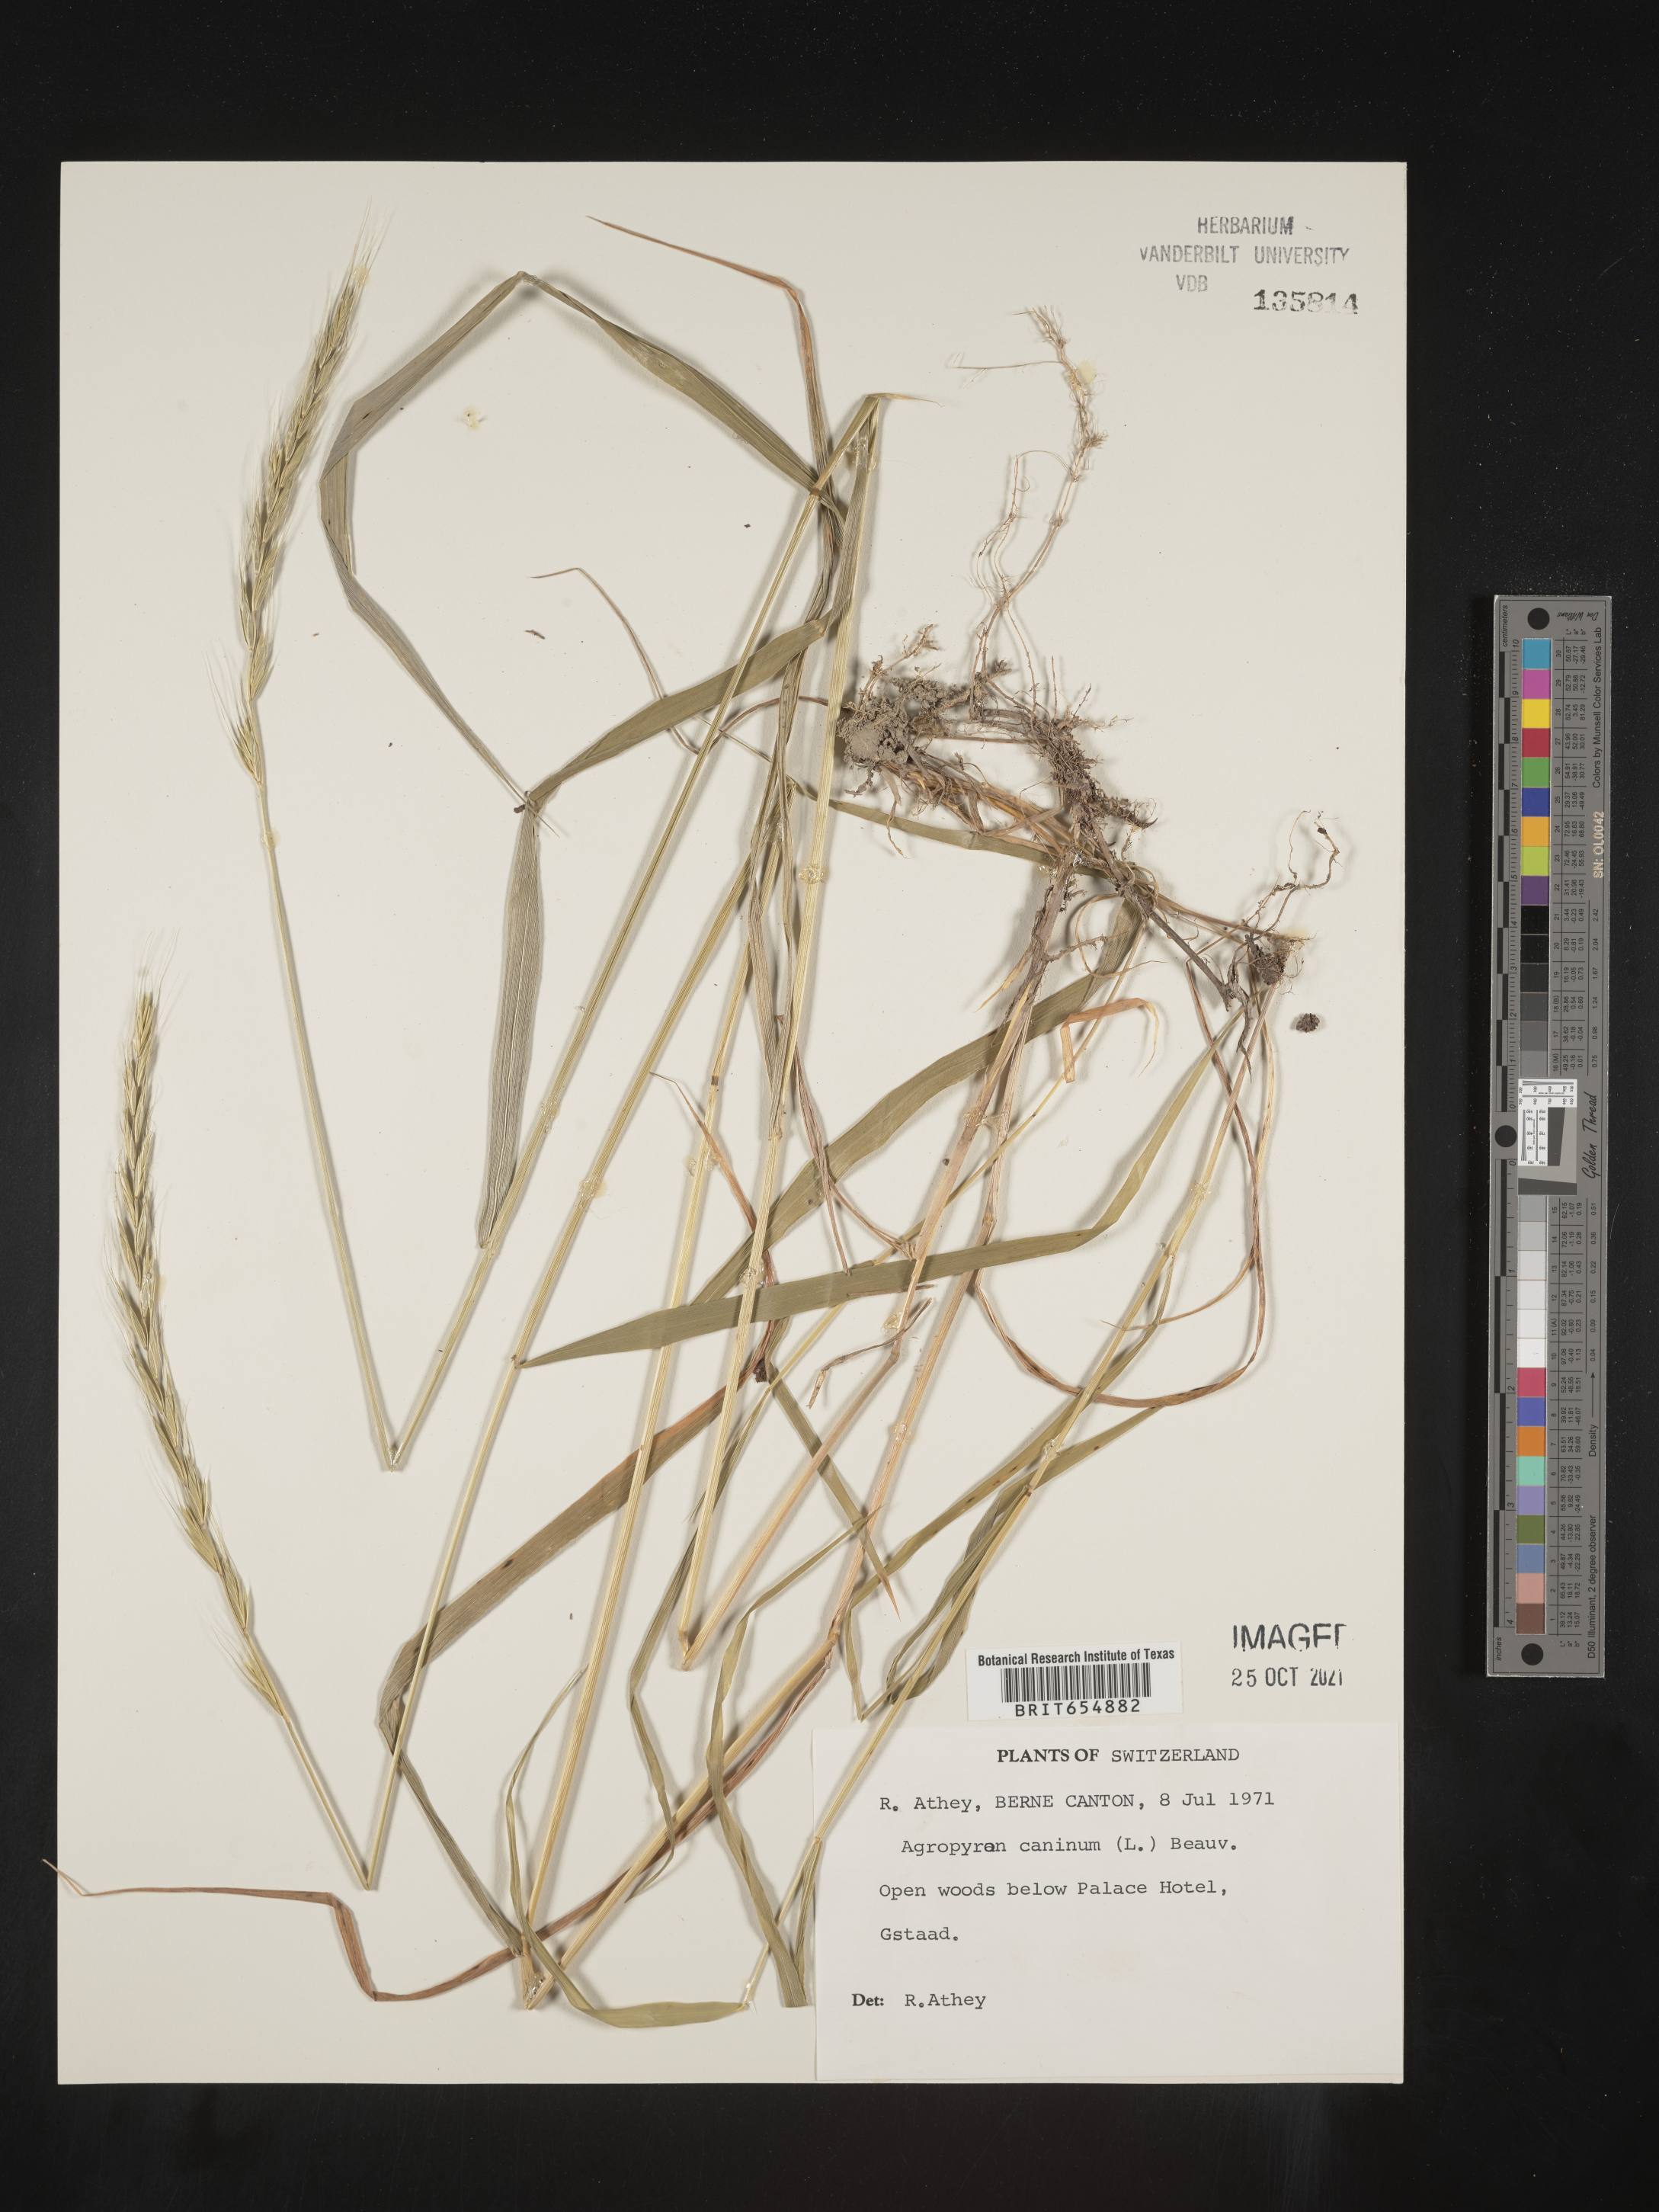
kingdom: Plantae
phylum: Tracheophyta
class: Liliopsida
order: Poales
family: Poaceae
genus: Agropyron
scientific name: Agropyron
